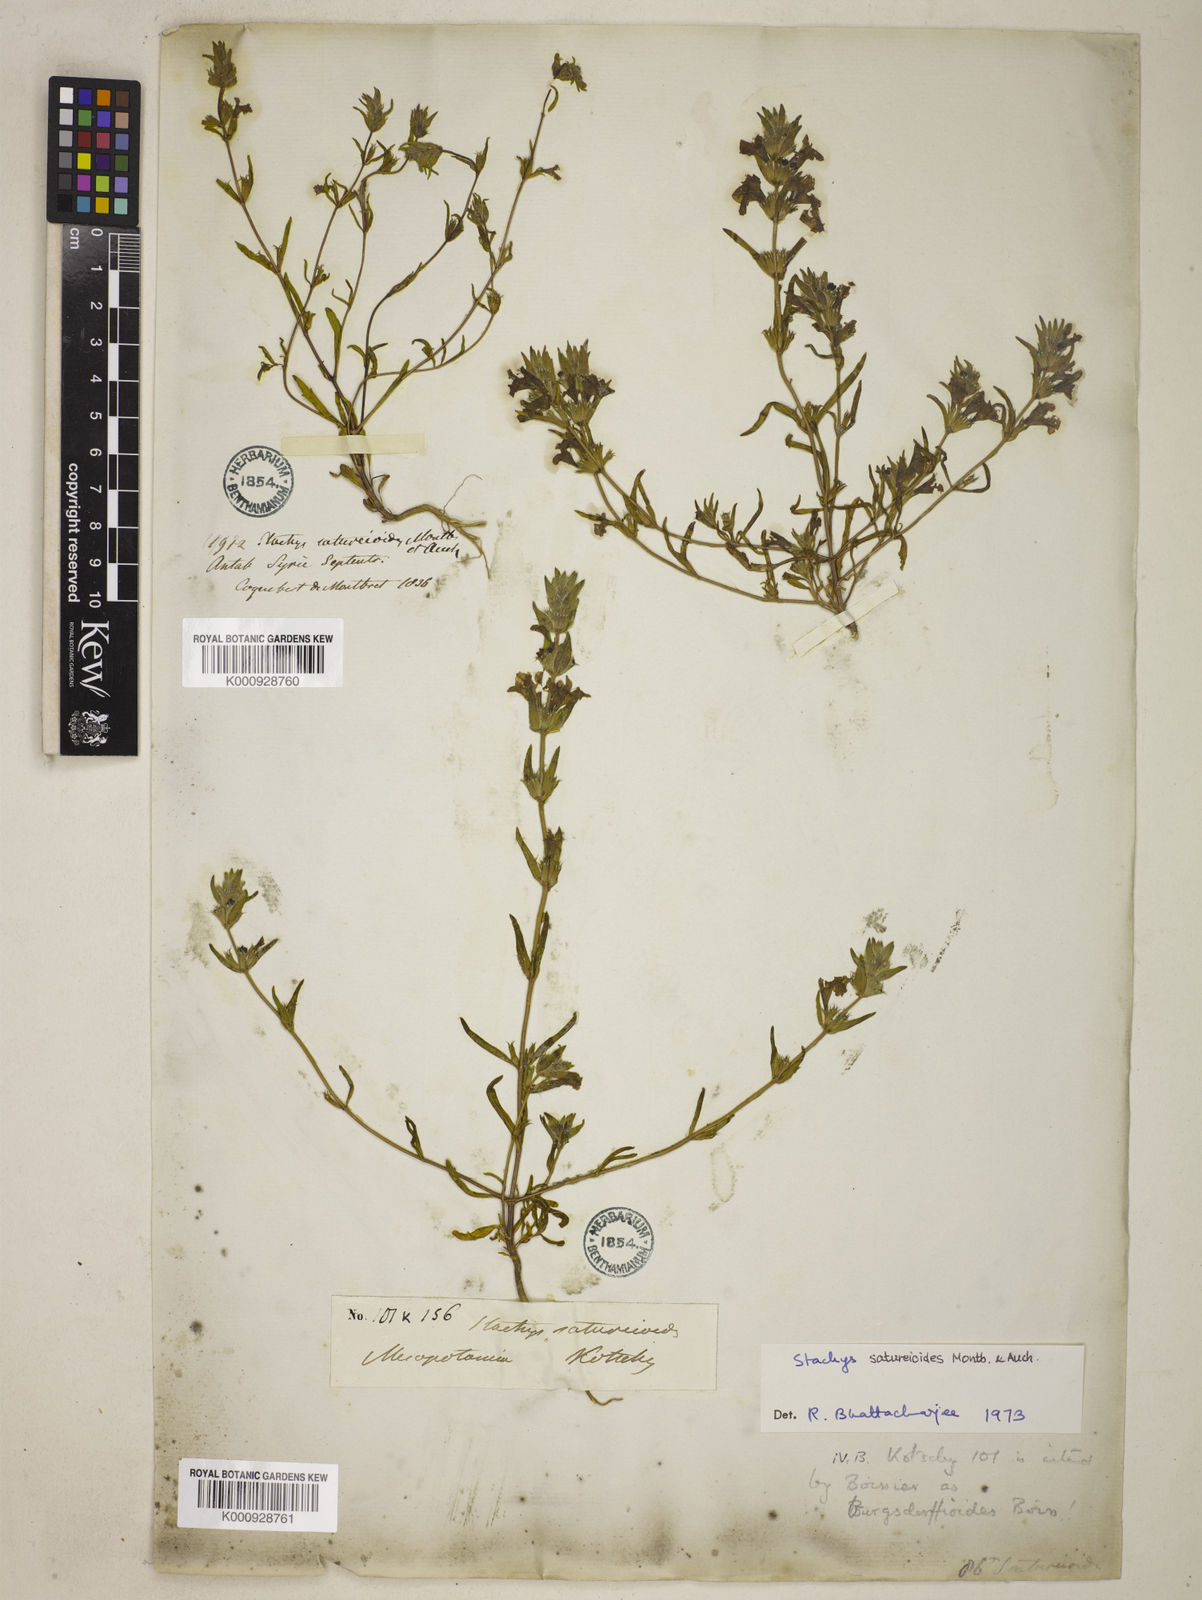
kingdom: Plantae
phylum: Tracheophyta
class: Magnoliopsida
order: Lamiales
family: Lamiaceae
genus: Stachys
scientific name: Stachys saturejoides
